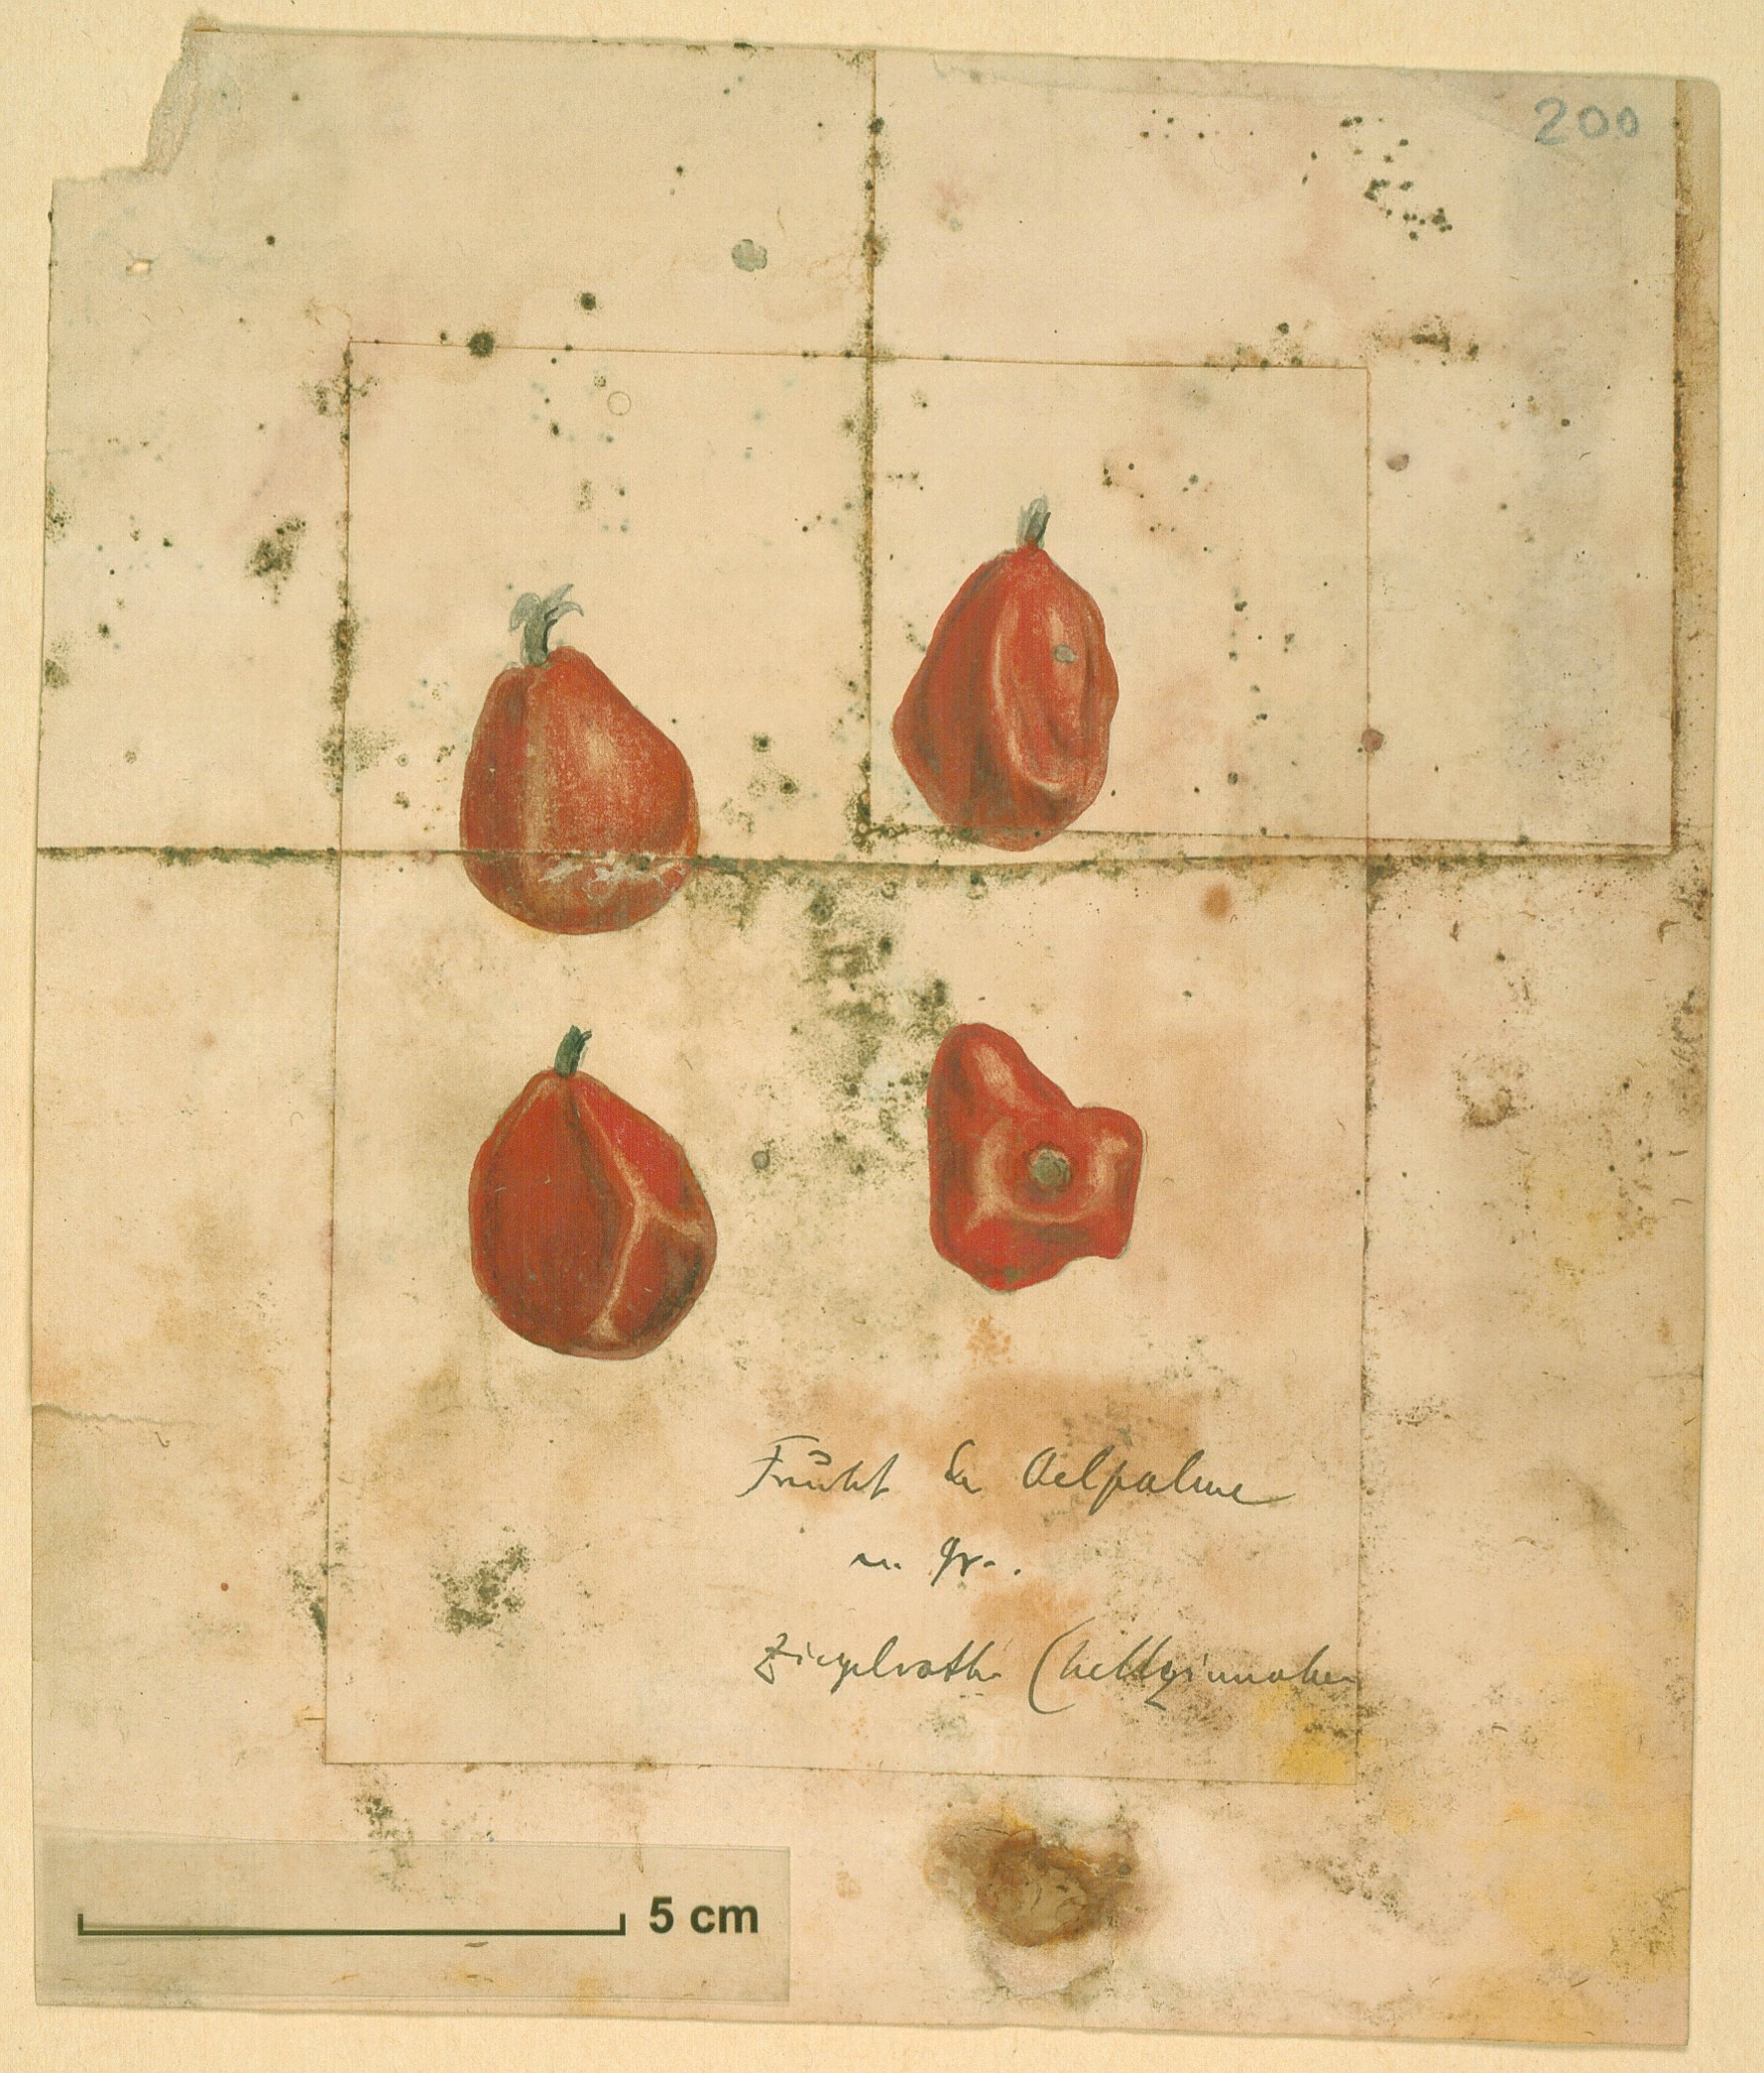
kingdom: Plantae
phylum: Tracheophyta
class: Liliopsida
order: Arecales
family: Arecaceae
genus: Elaeis
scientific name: Elaeis guineensis
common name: Oil palm
